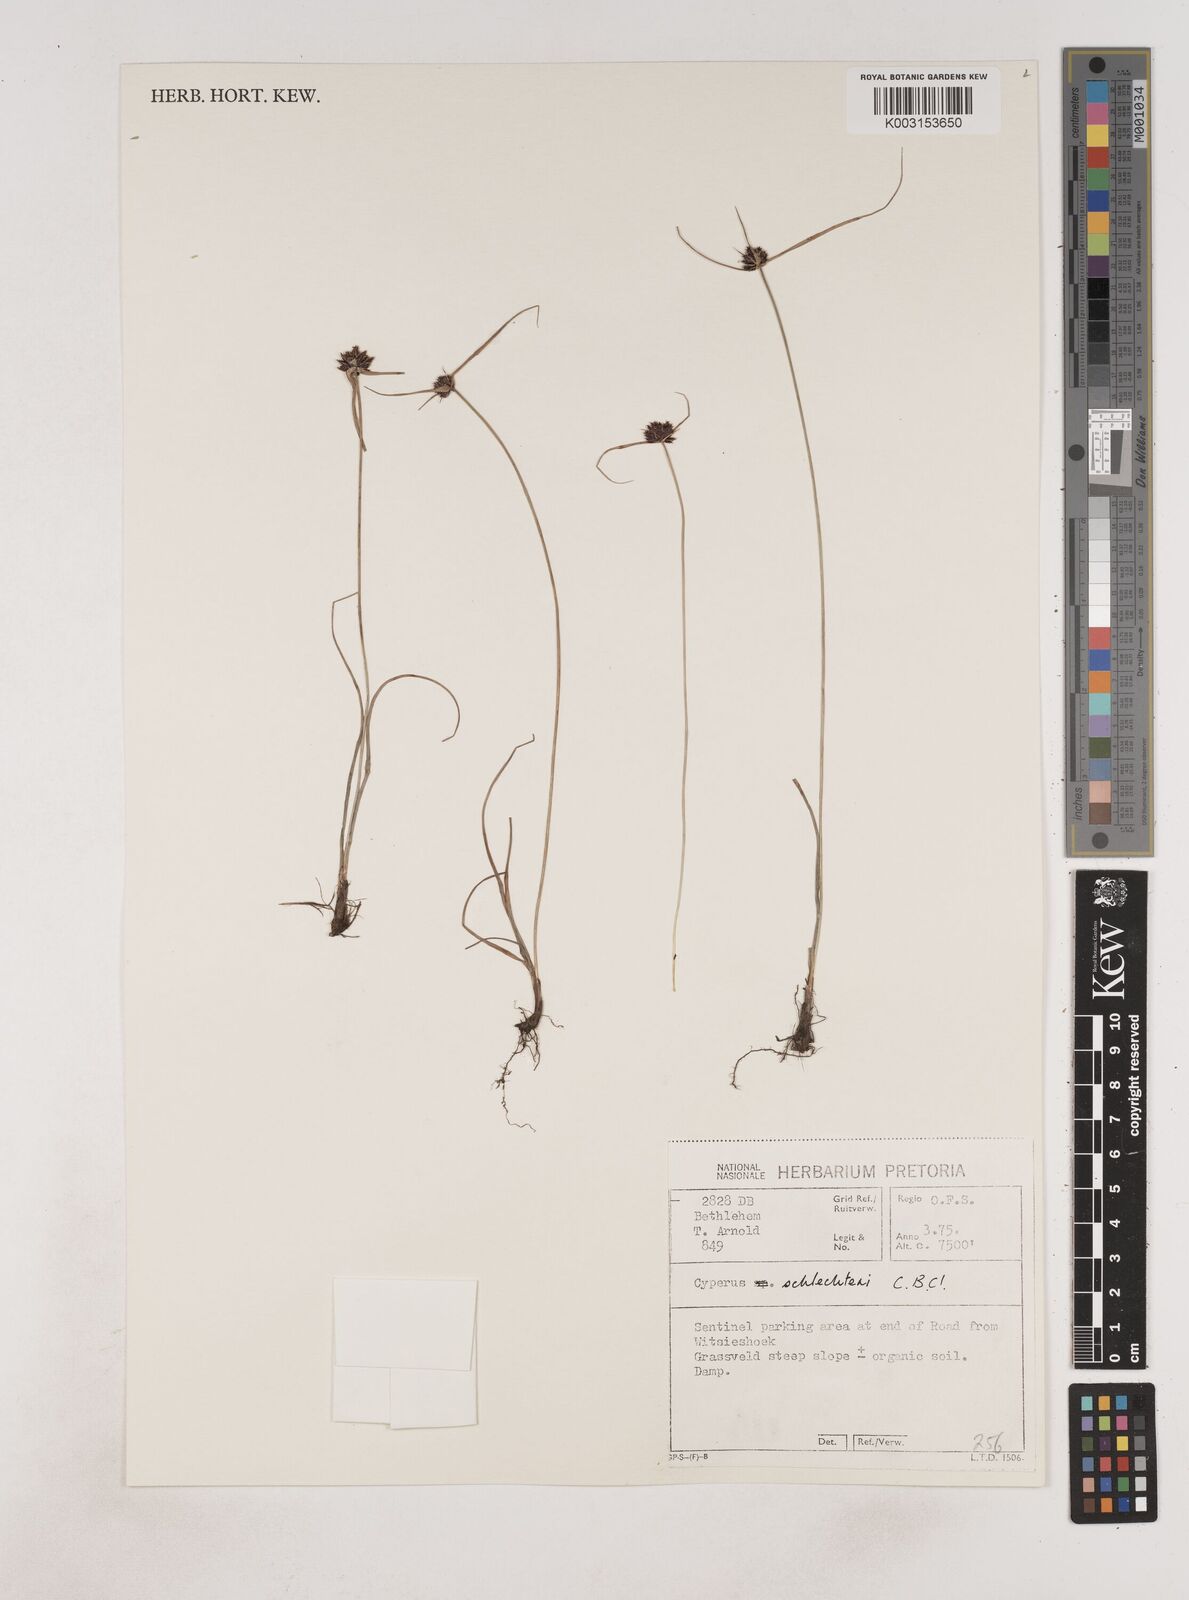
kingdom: Plantae
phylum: Tracheophyta
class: Liliopsida
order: Poales
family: Cyperaceae
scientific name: Cyperaceae
